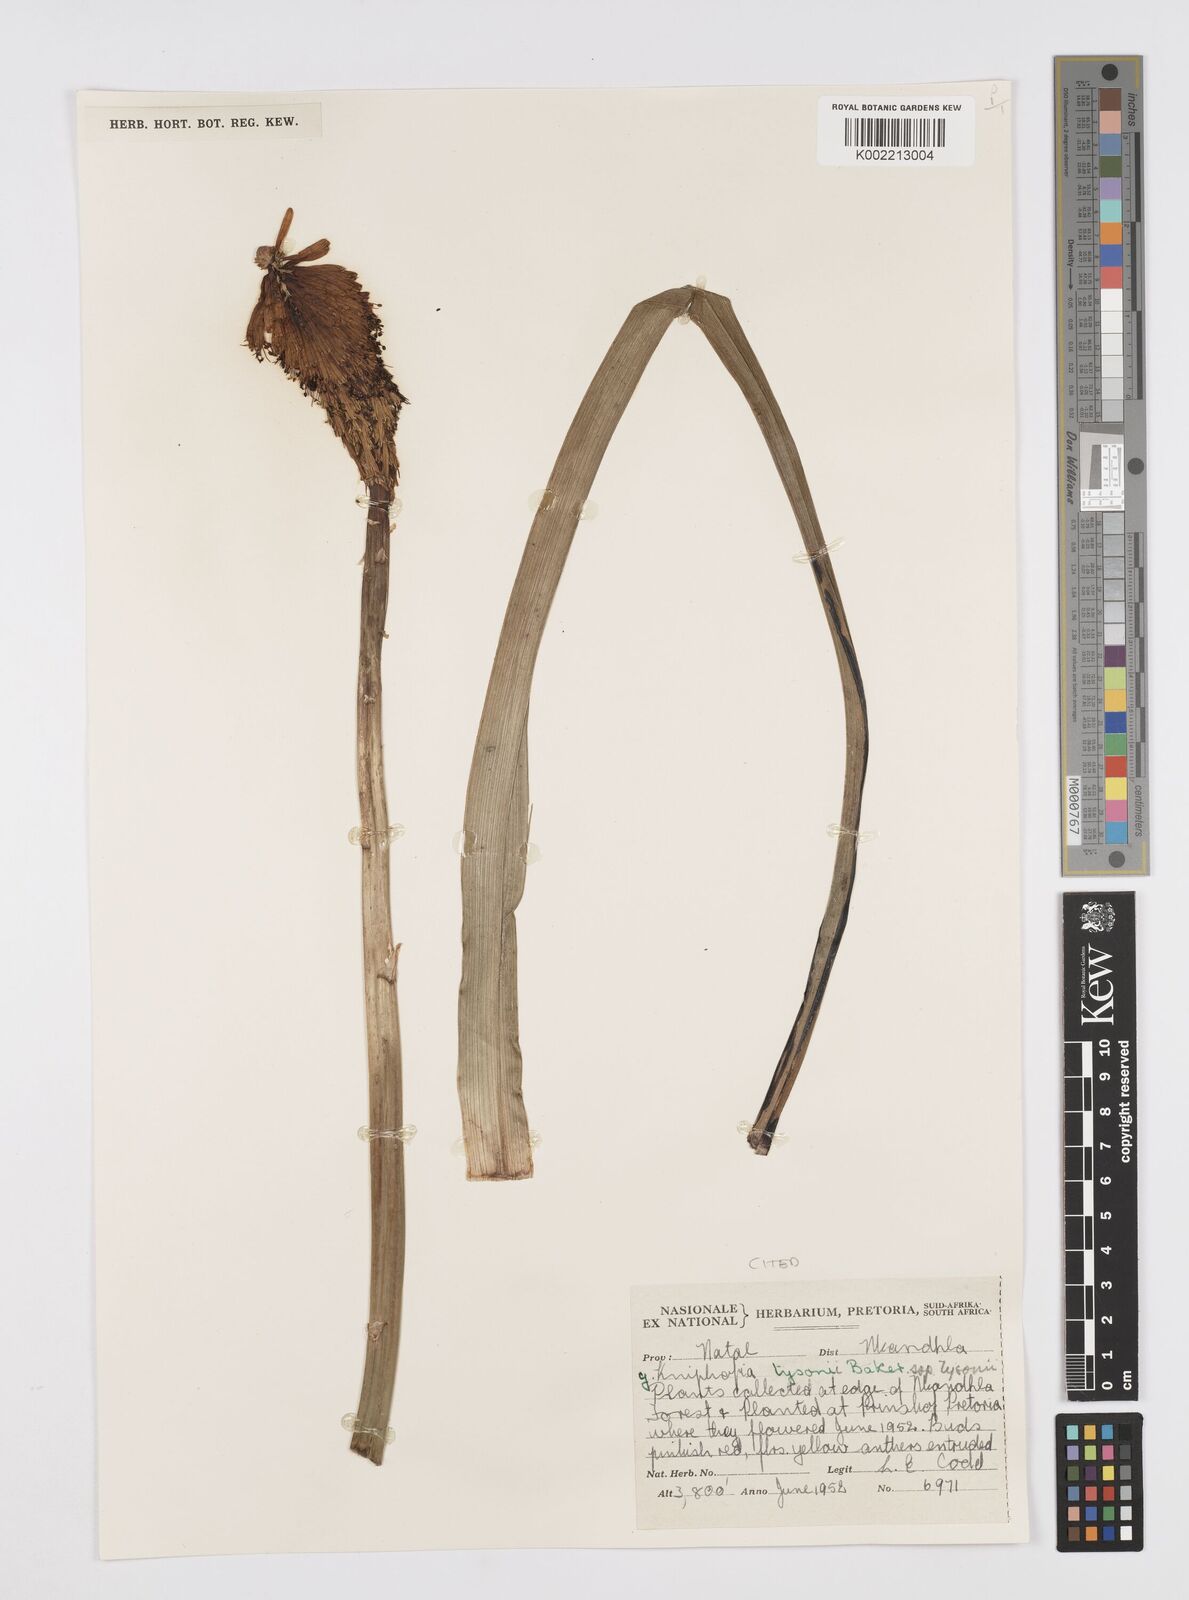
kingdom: Plantae
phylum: Tracheophyta
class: Liliopsida
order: Asparagales
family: Asphodelaceae
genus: Kniphofia
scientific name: Kniphofia tysonii
